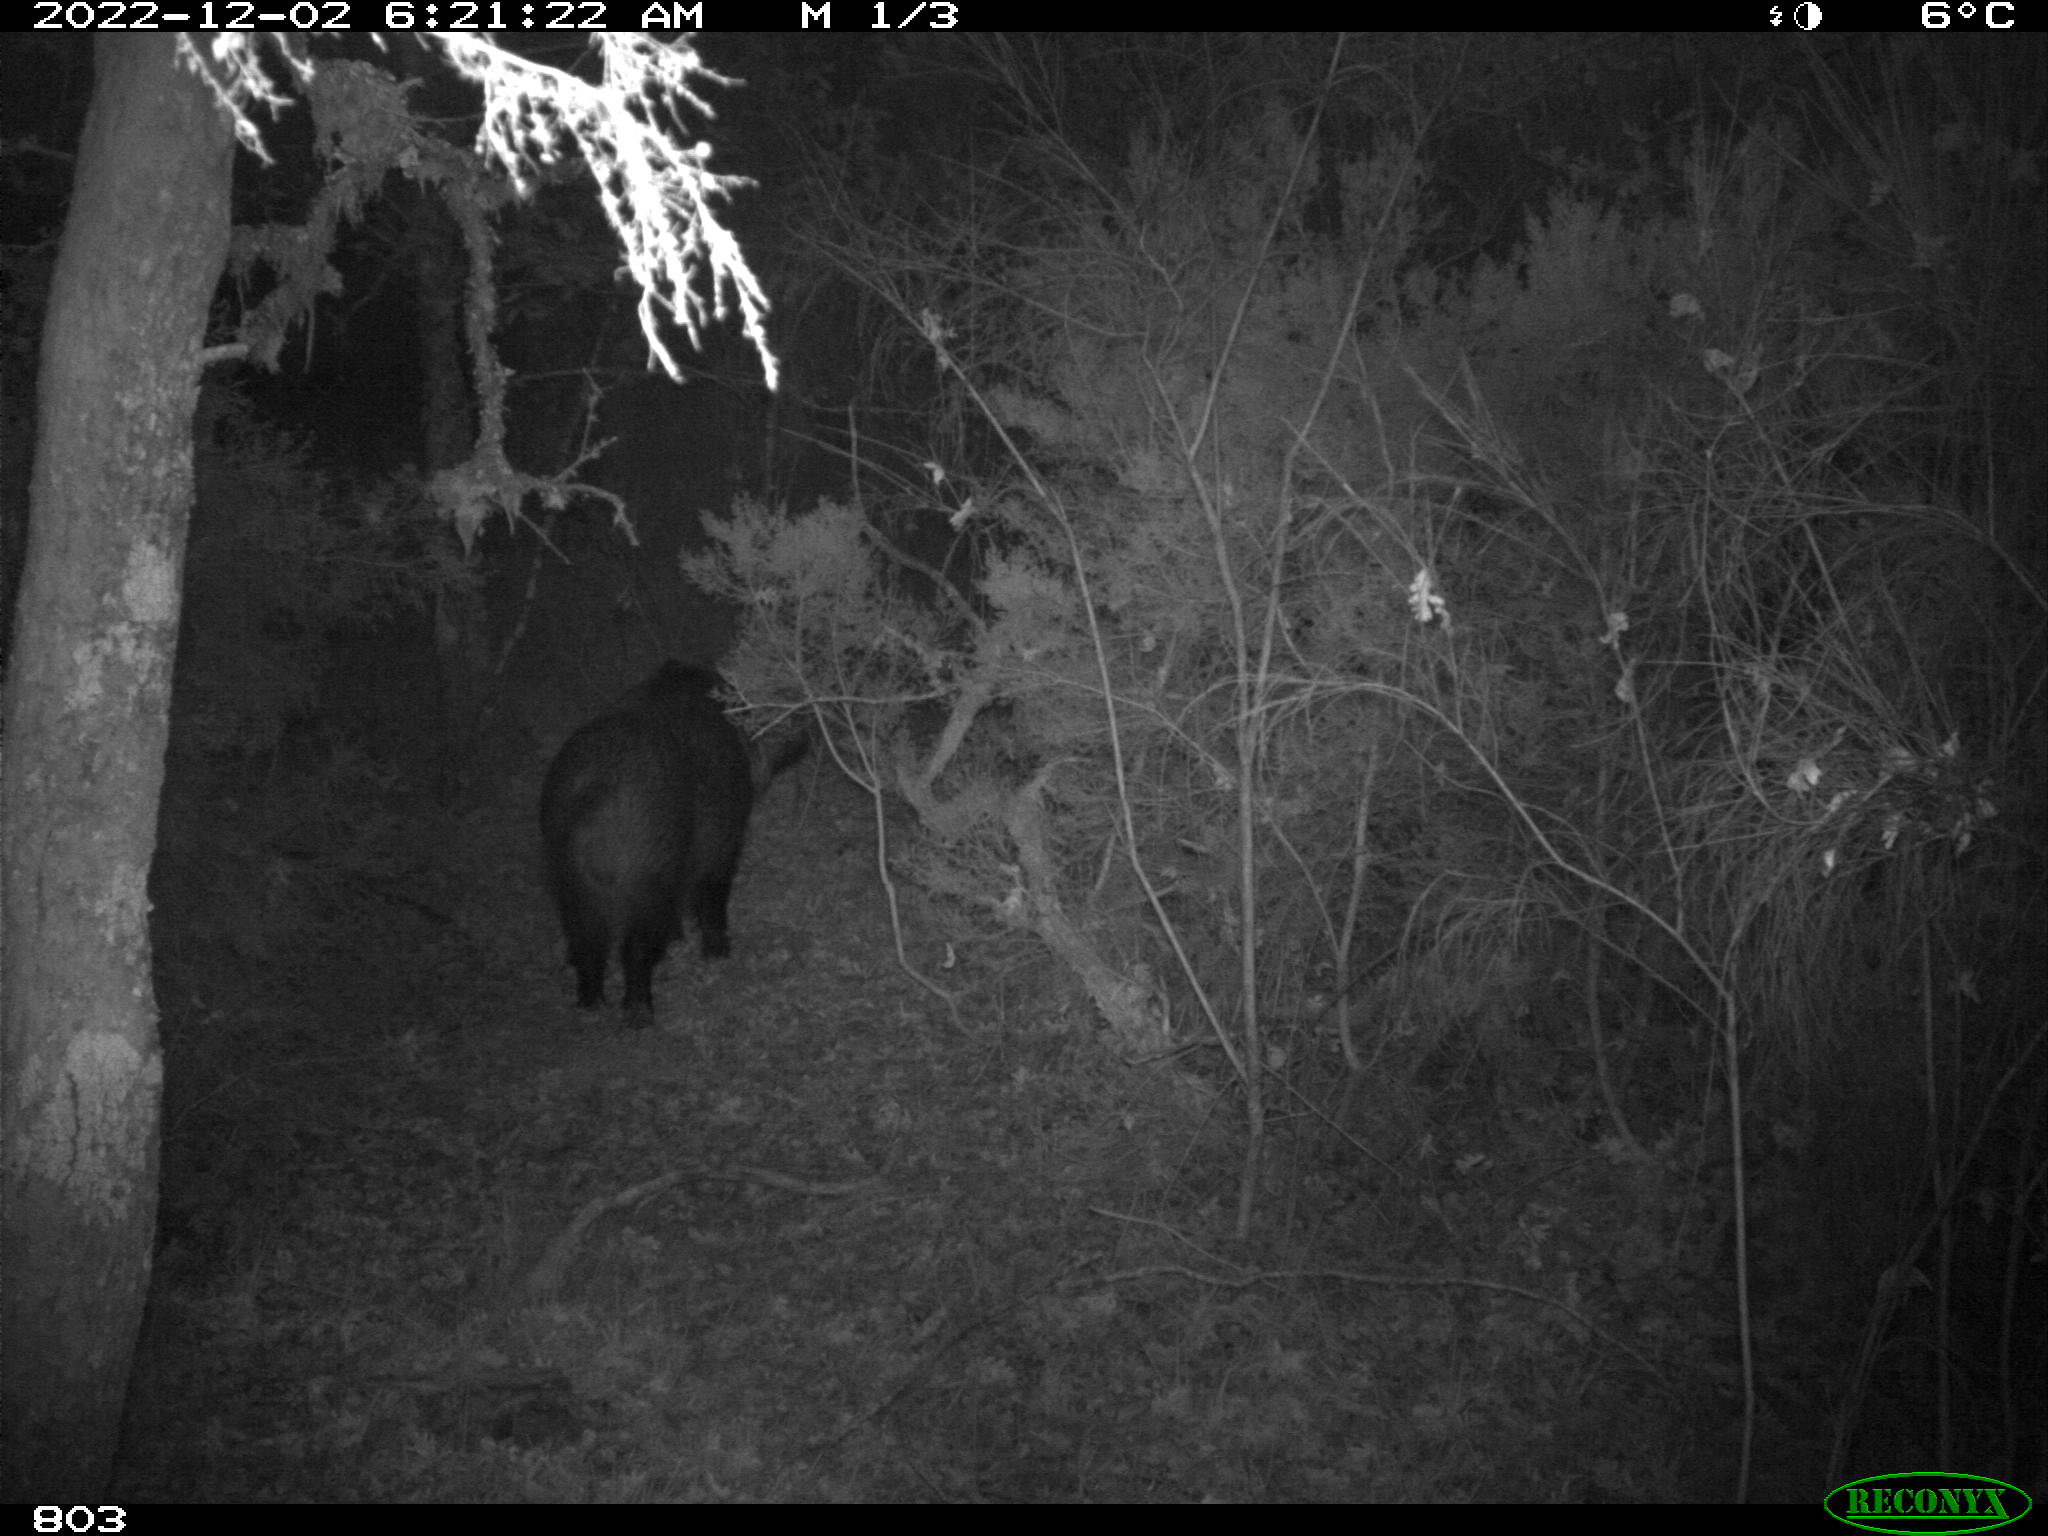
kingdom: Animalia
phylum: Chordata
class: Mammalia
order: Artiodactyla
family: Suidae
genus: Sus
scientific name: Sus scrofa
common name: Wild boar
